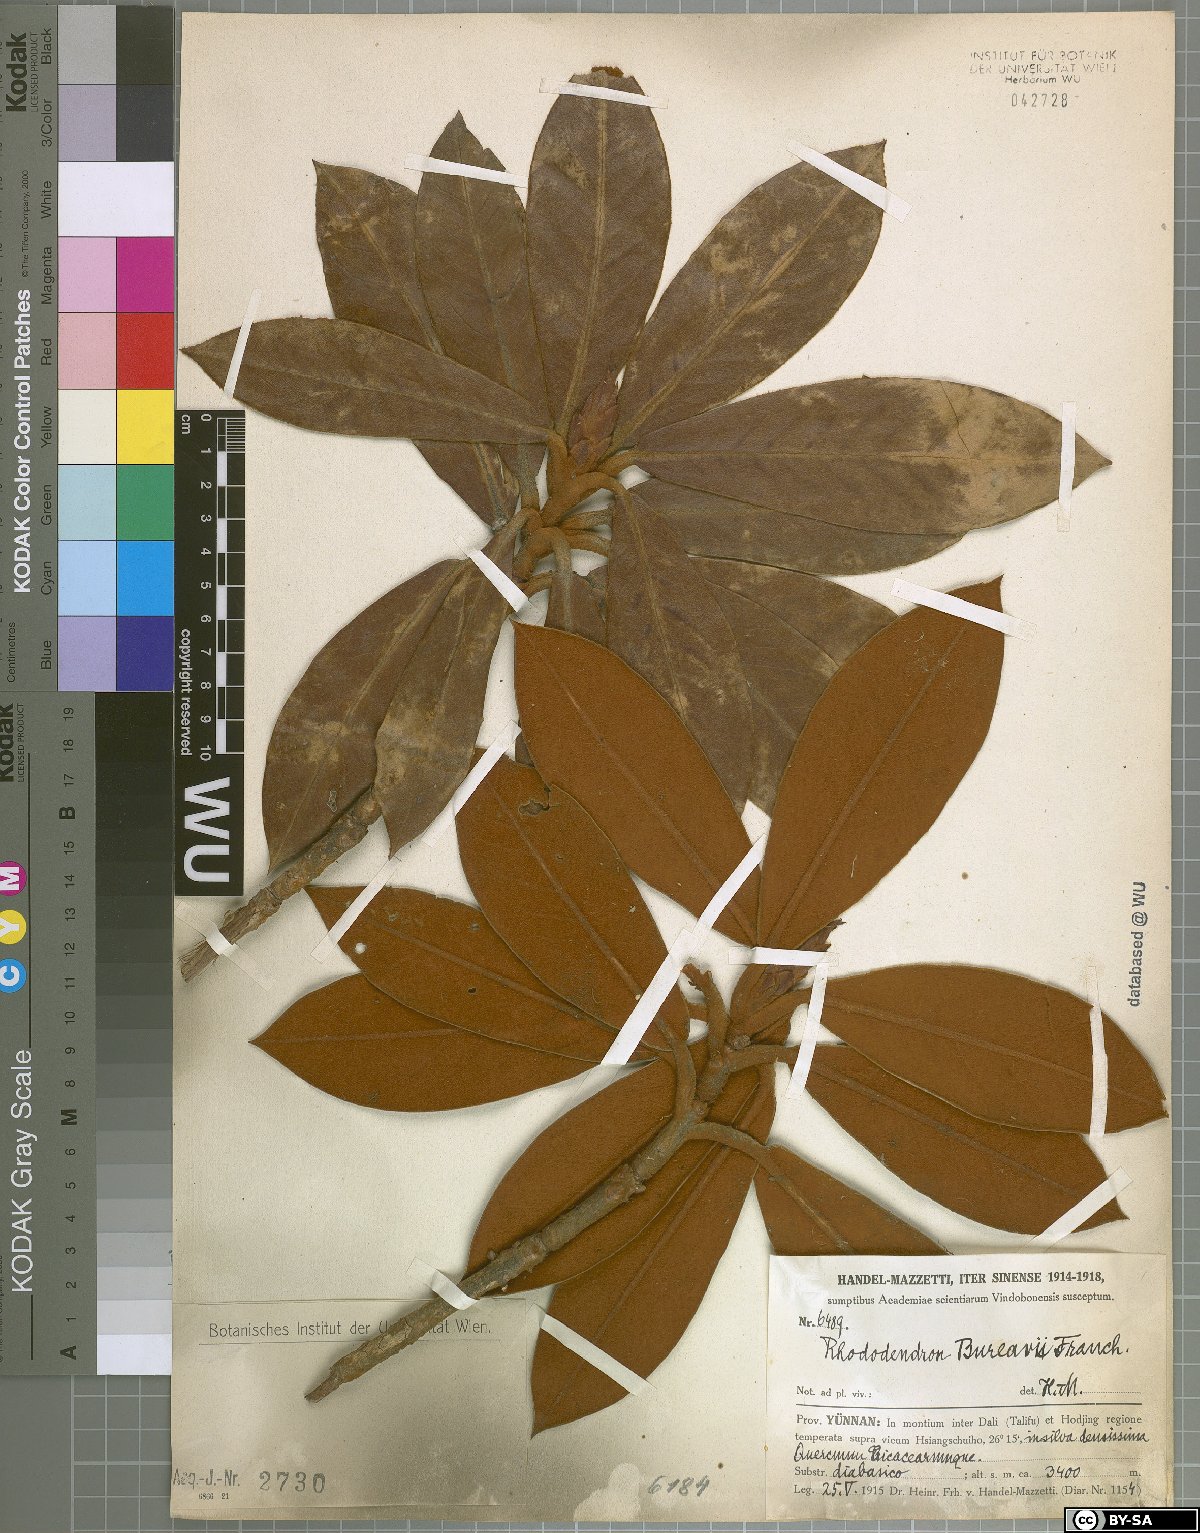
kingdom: Plantae
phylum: Tracheophyta
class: Magnoliopsida
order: Ericales
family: Ericaceae
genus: Rhododendron
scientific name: Rhododendron bureavii
